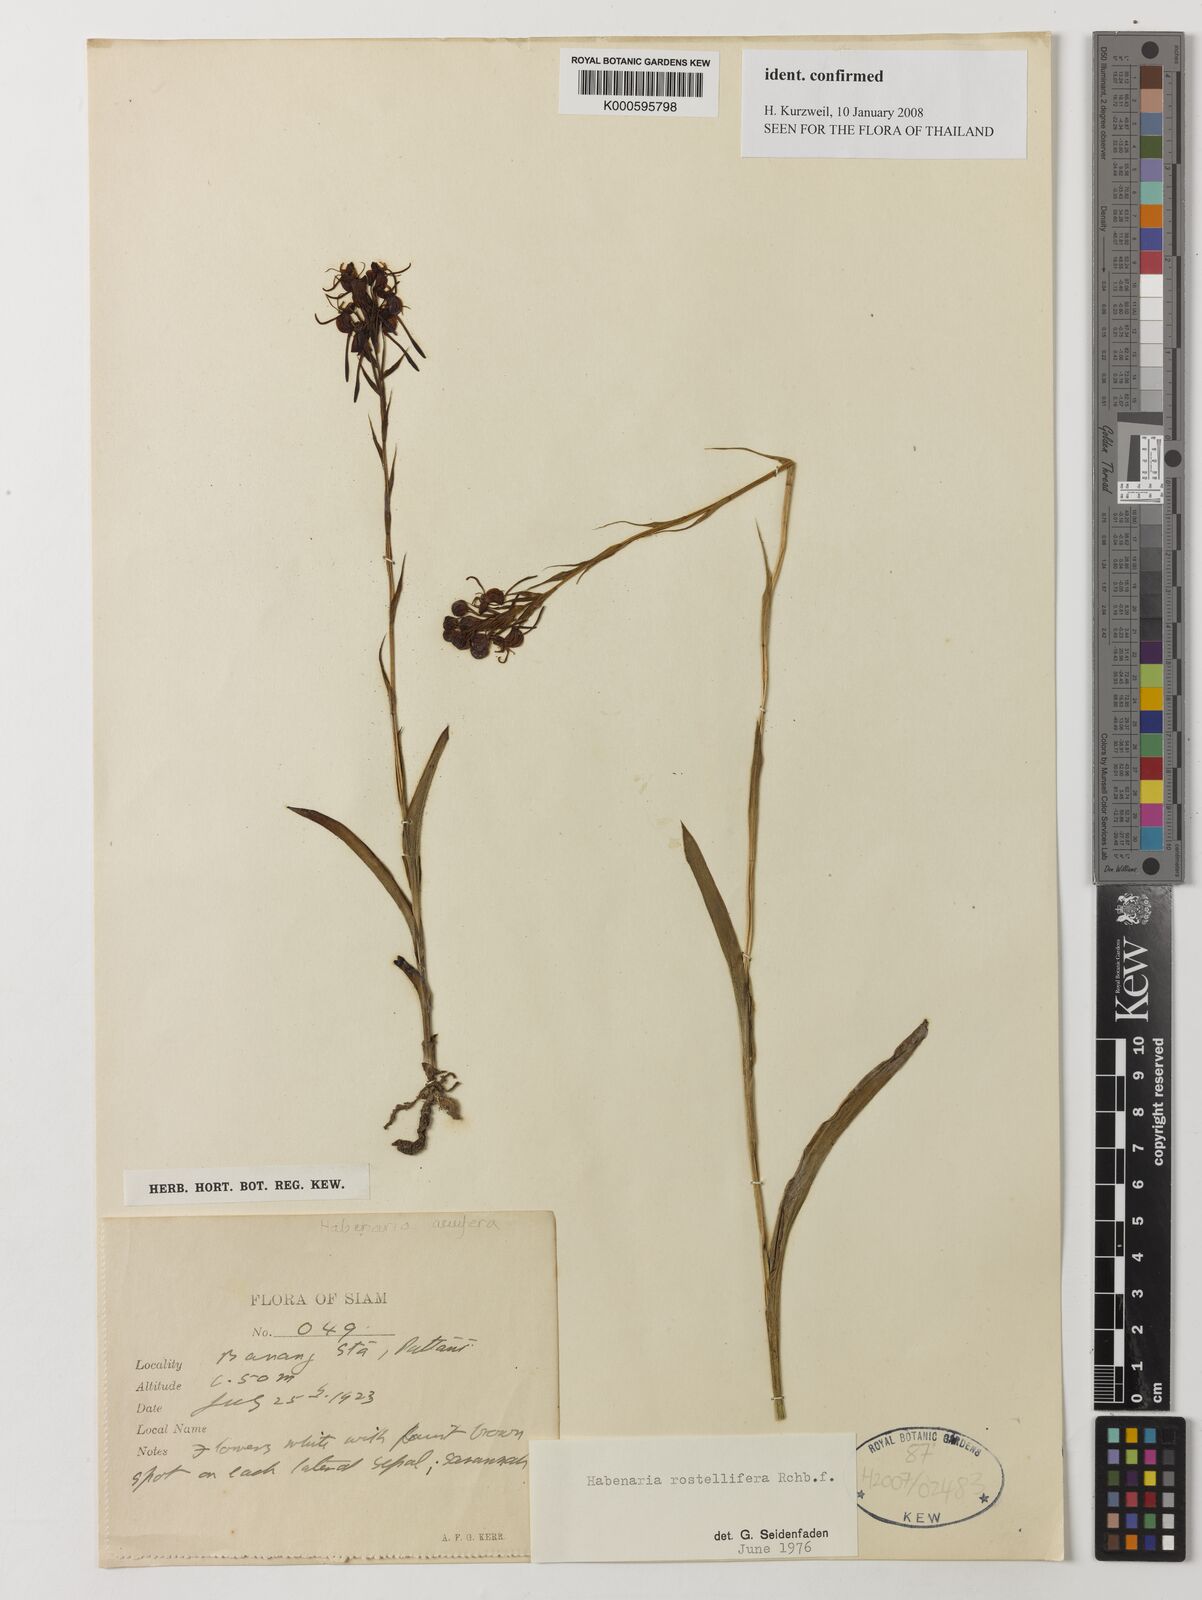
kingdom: Plantae
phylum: Tracheophyta
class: Liliopsida
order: Asparagales
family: Orchidaceae
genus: Habenaria
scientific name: Habenaria rostellifera
